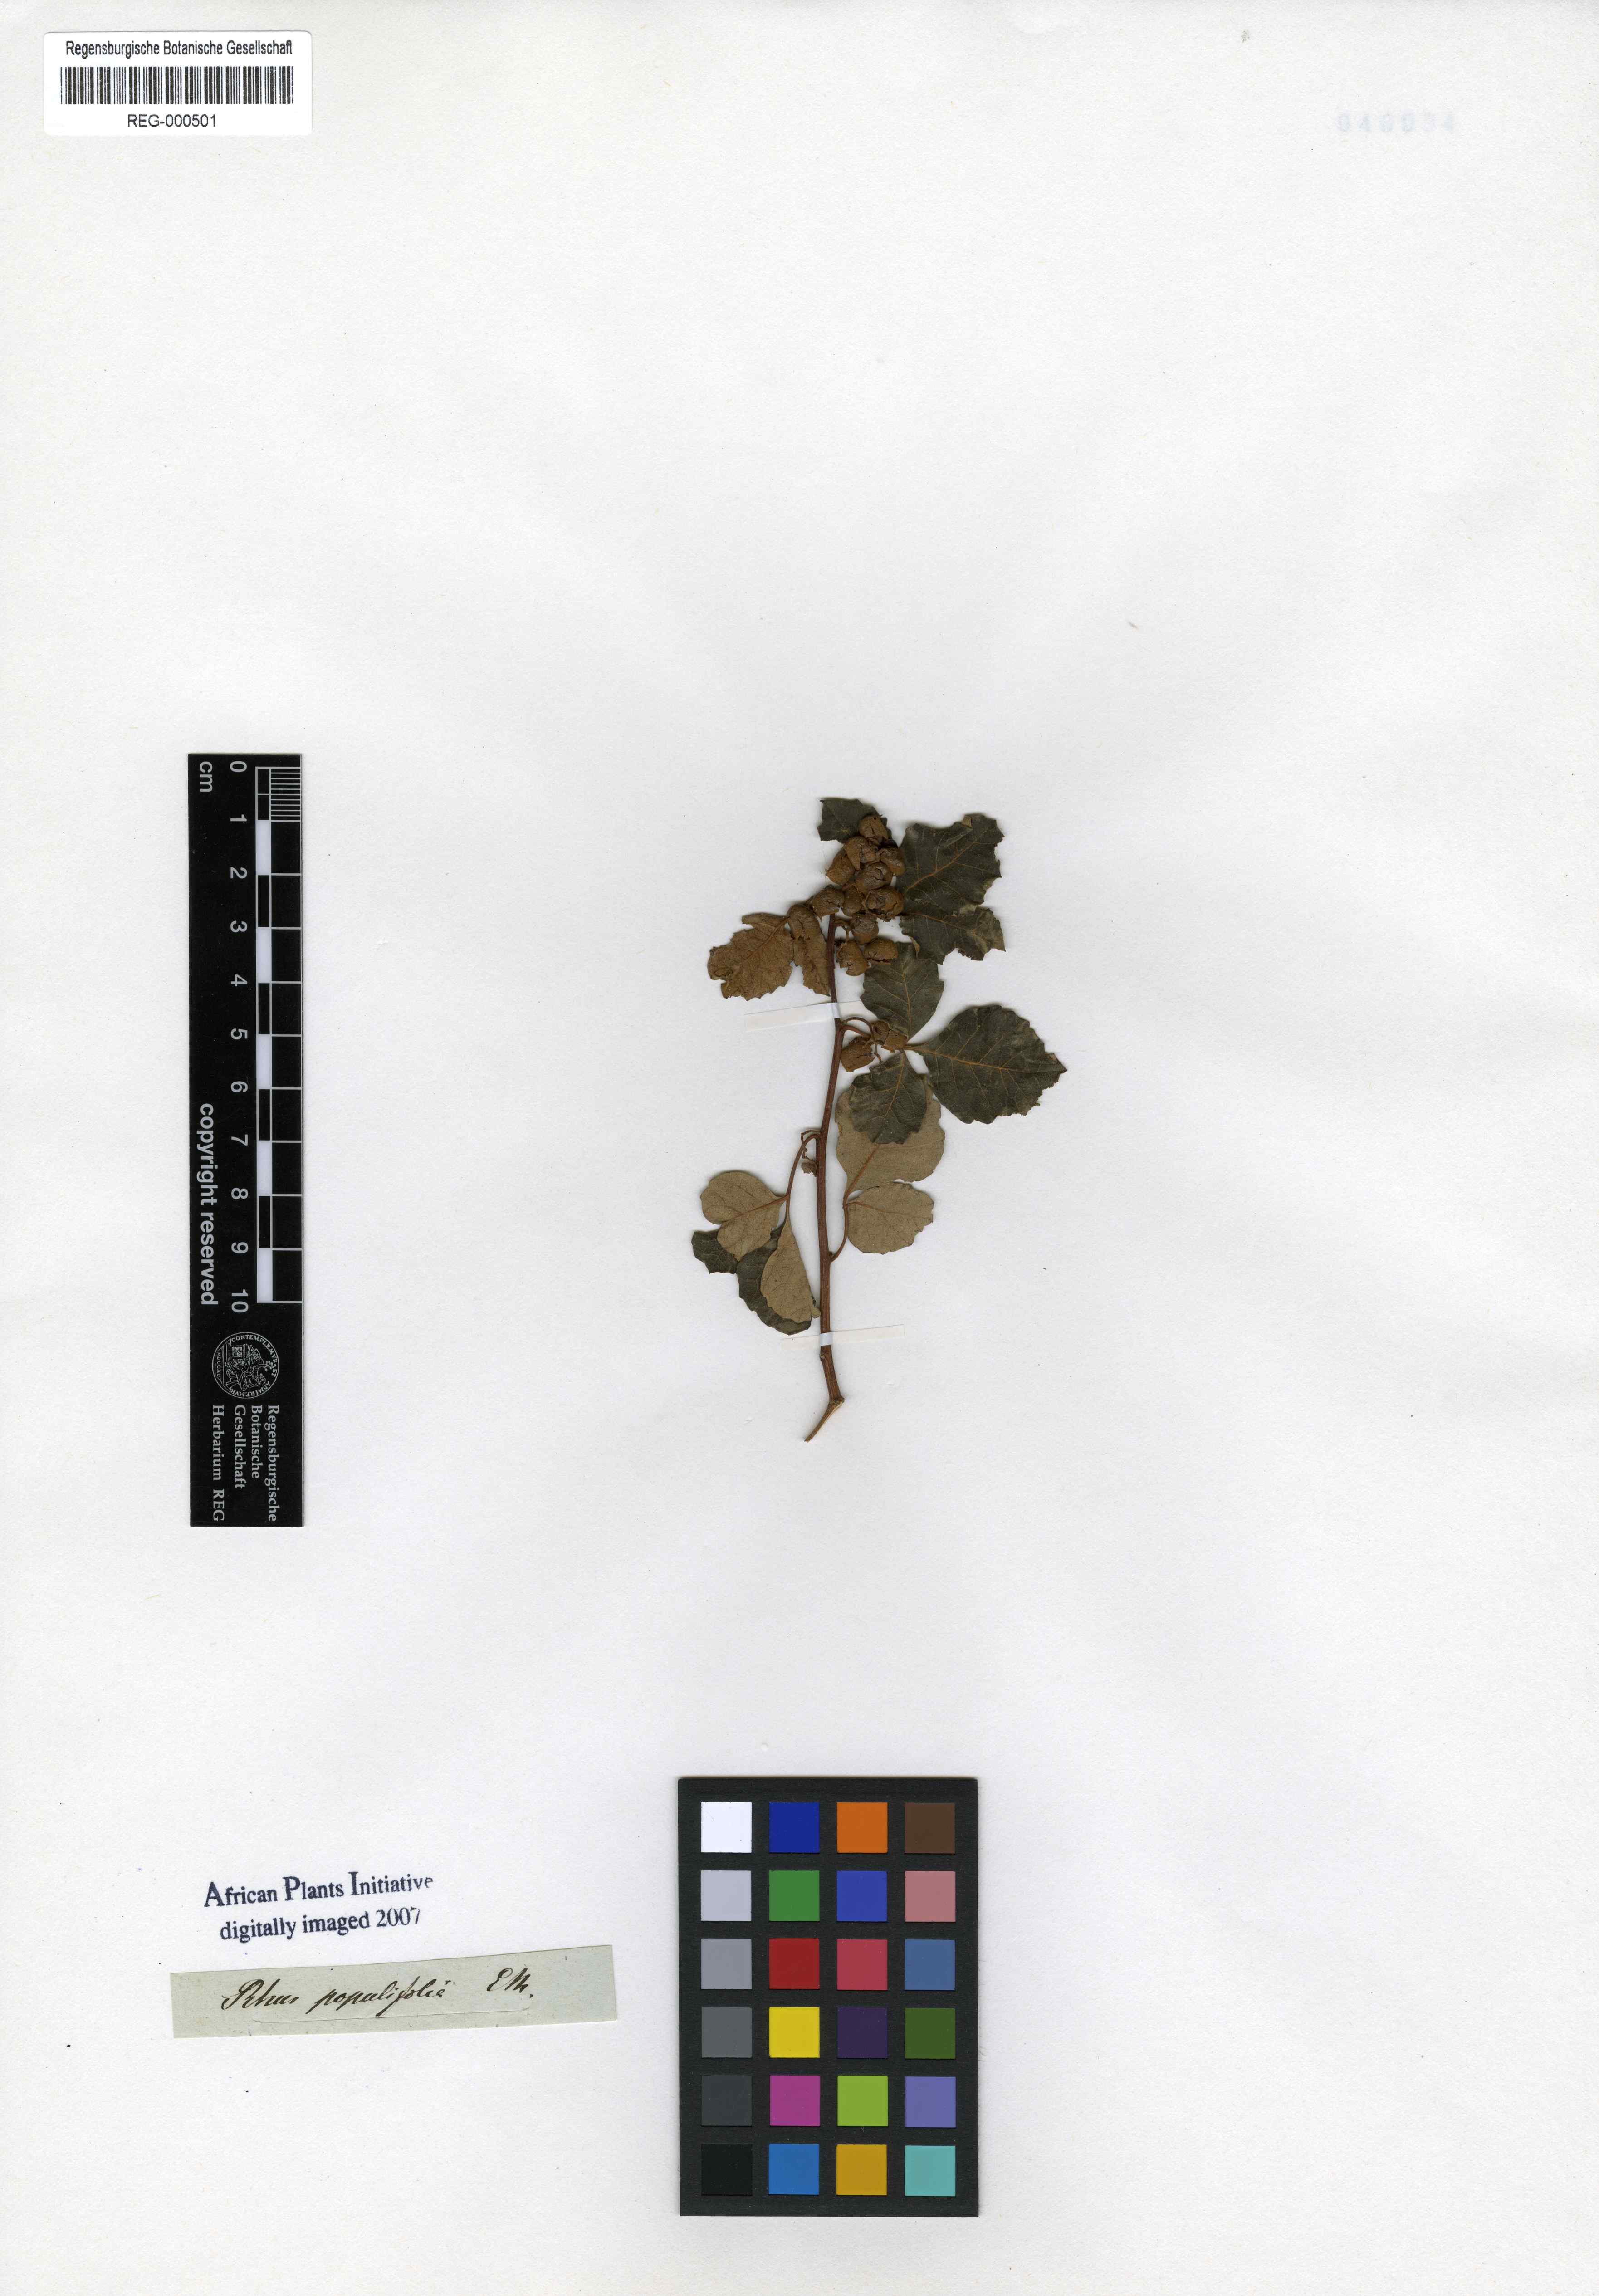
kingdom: Plantae
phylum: Tracheophyta
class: Magnoliopsida
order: Sapindales
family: Anacardiaceae
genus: Searsia
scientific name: Searsia populifolia
